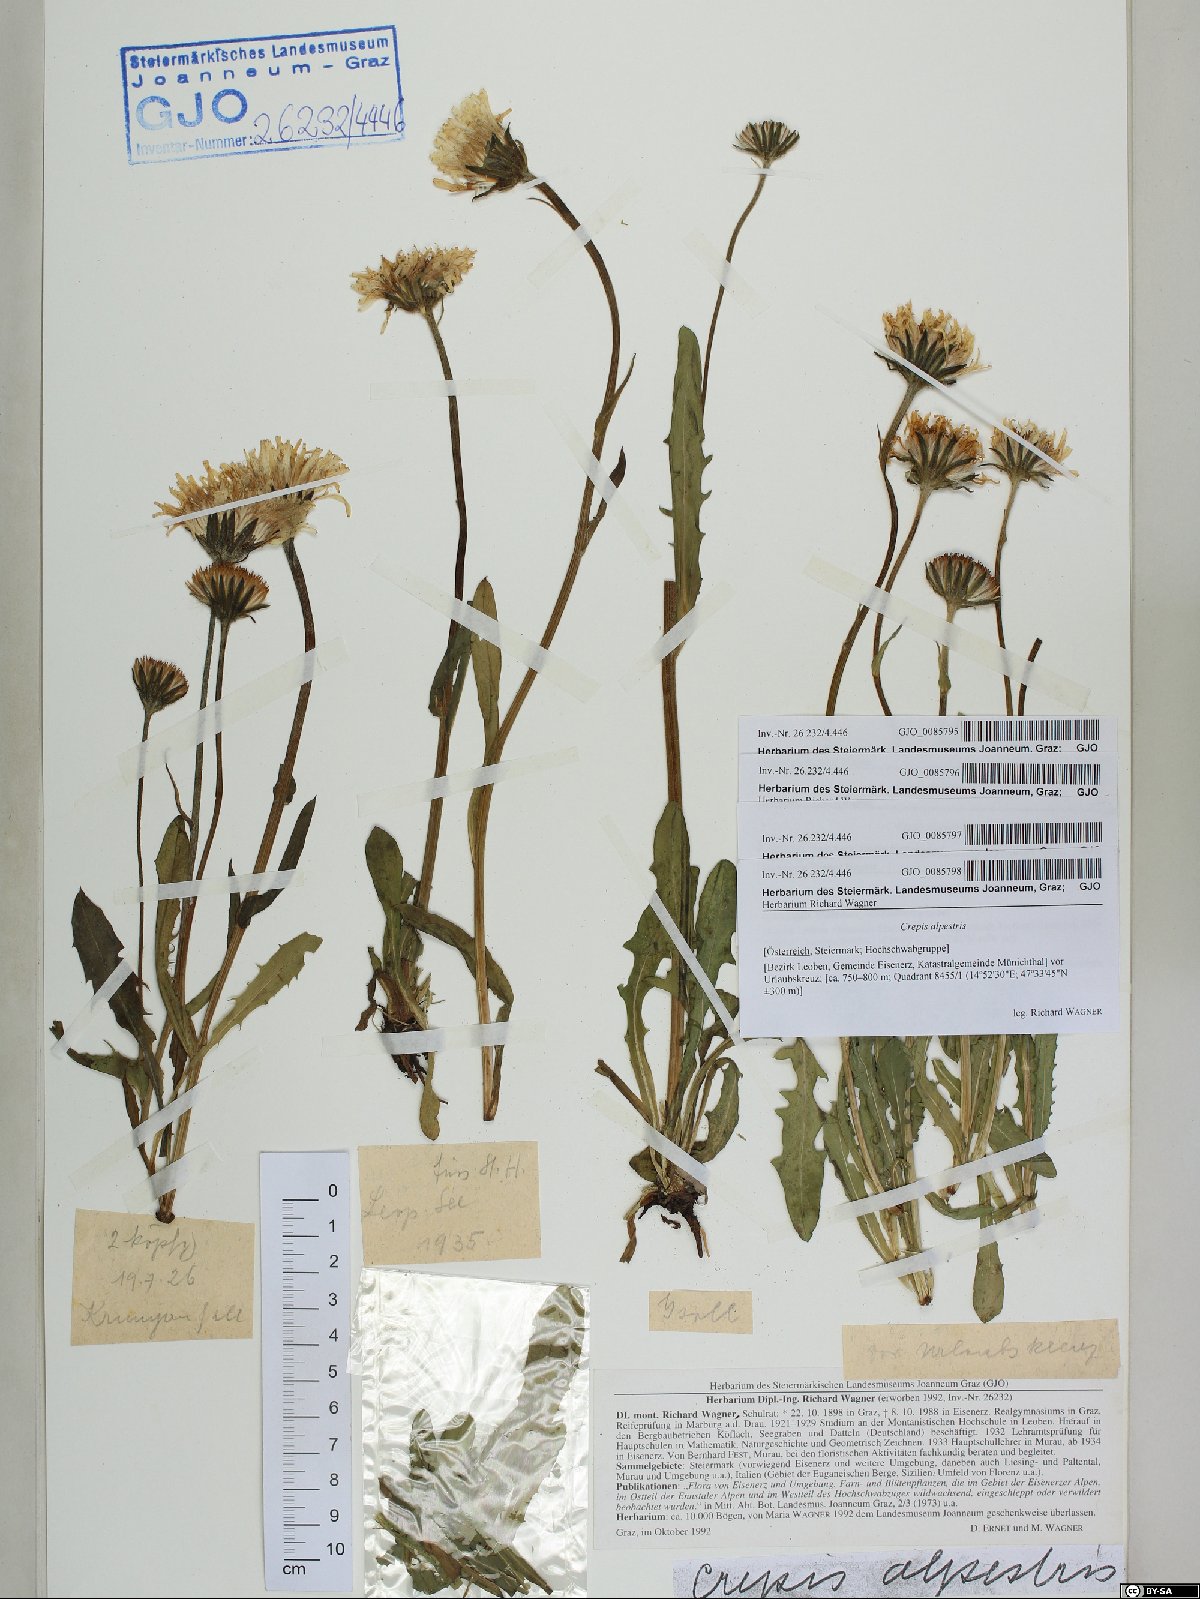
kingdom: Plantae
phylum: Tracheophyta
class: Magnoliopsida
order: Asterales
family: Asteraceae
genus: Crepis
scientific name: Crepis alpestris
